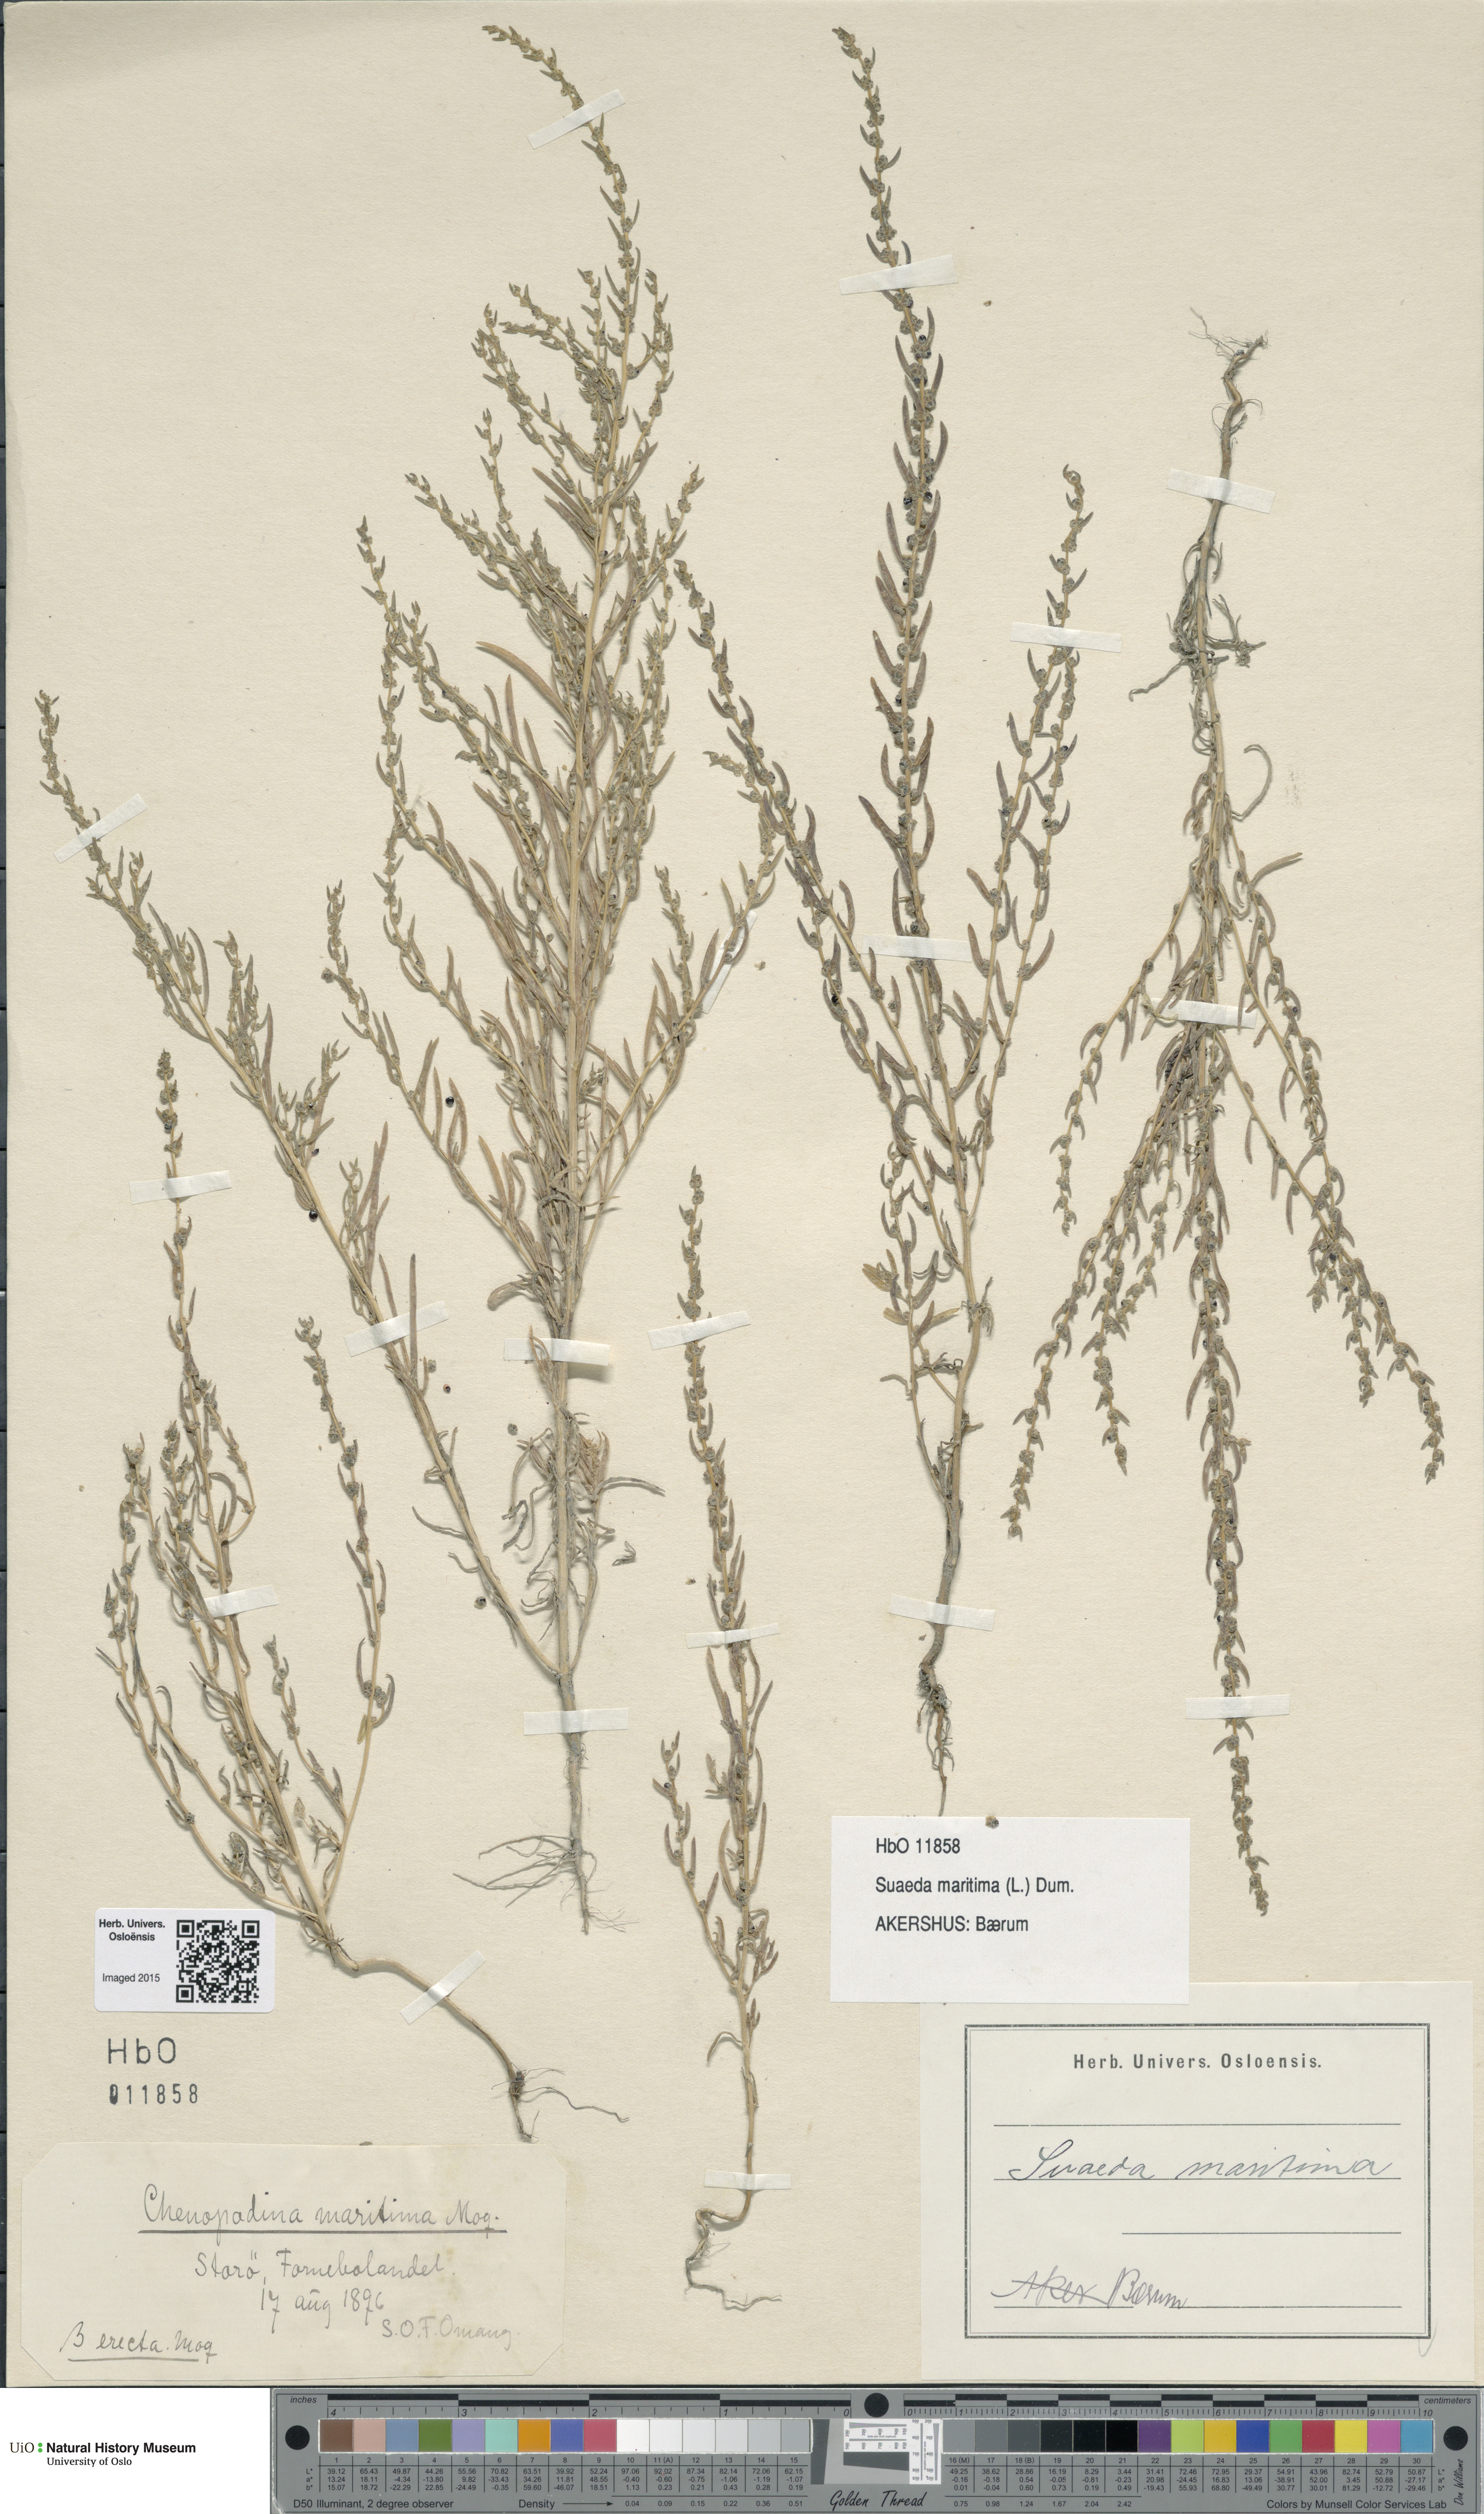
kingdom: Plantae
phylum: Tracheophyta
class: Magnoliopsida
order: Caryophyllales
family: Amaranthaceae
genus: Suaeda
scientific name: Suaeda maritima
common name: Annual sea-blite
